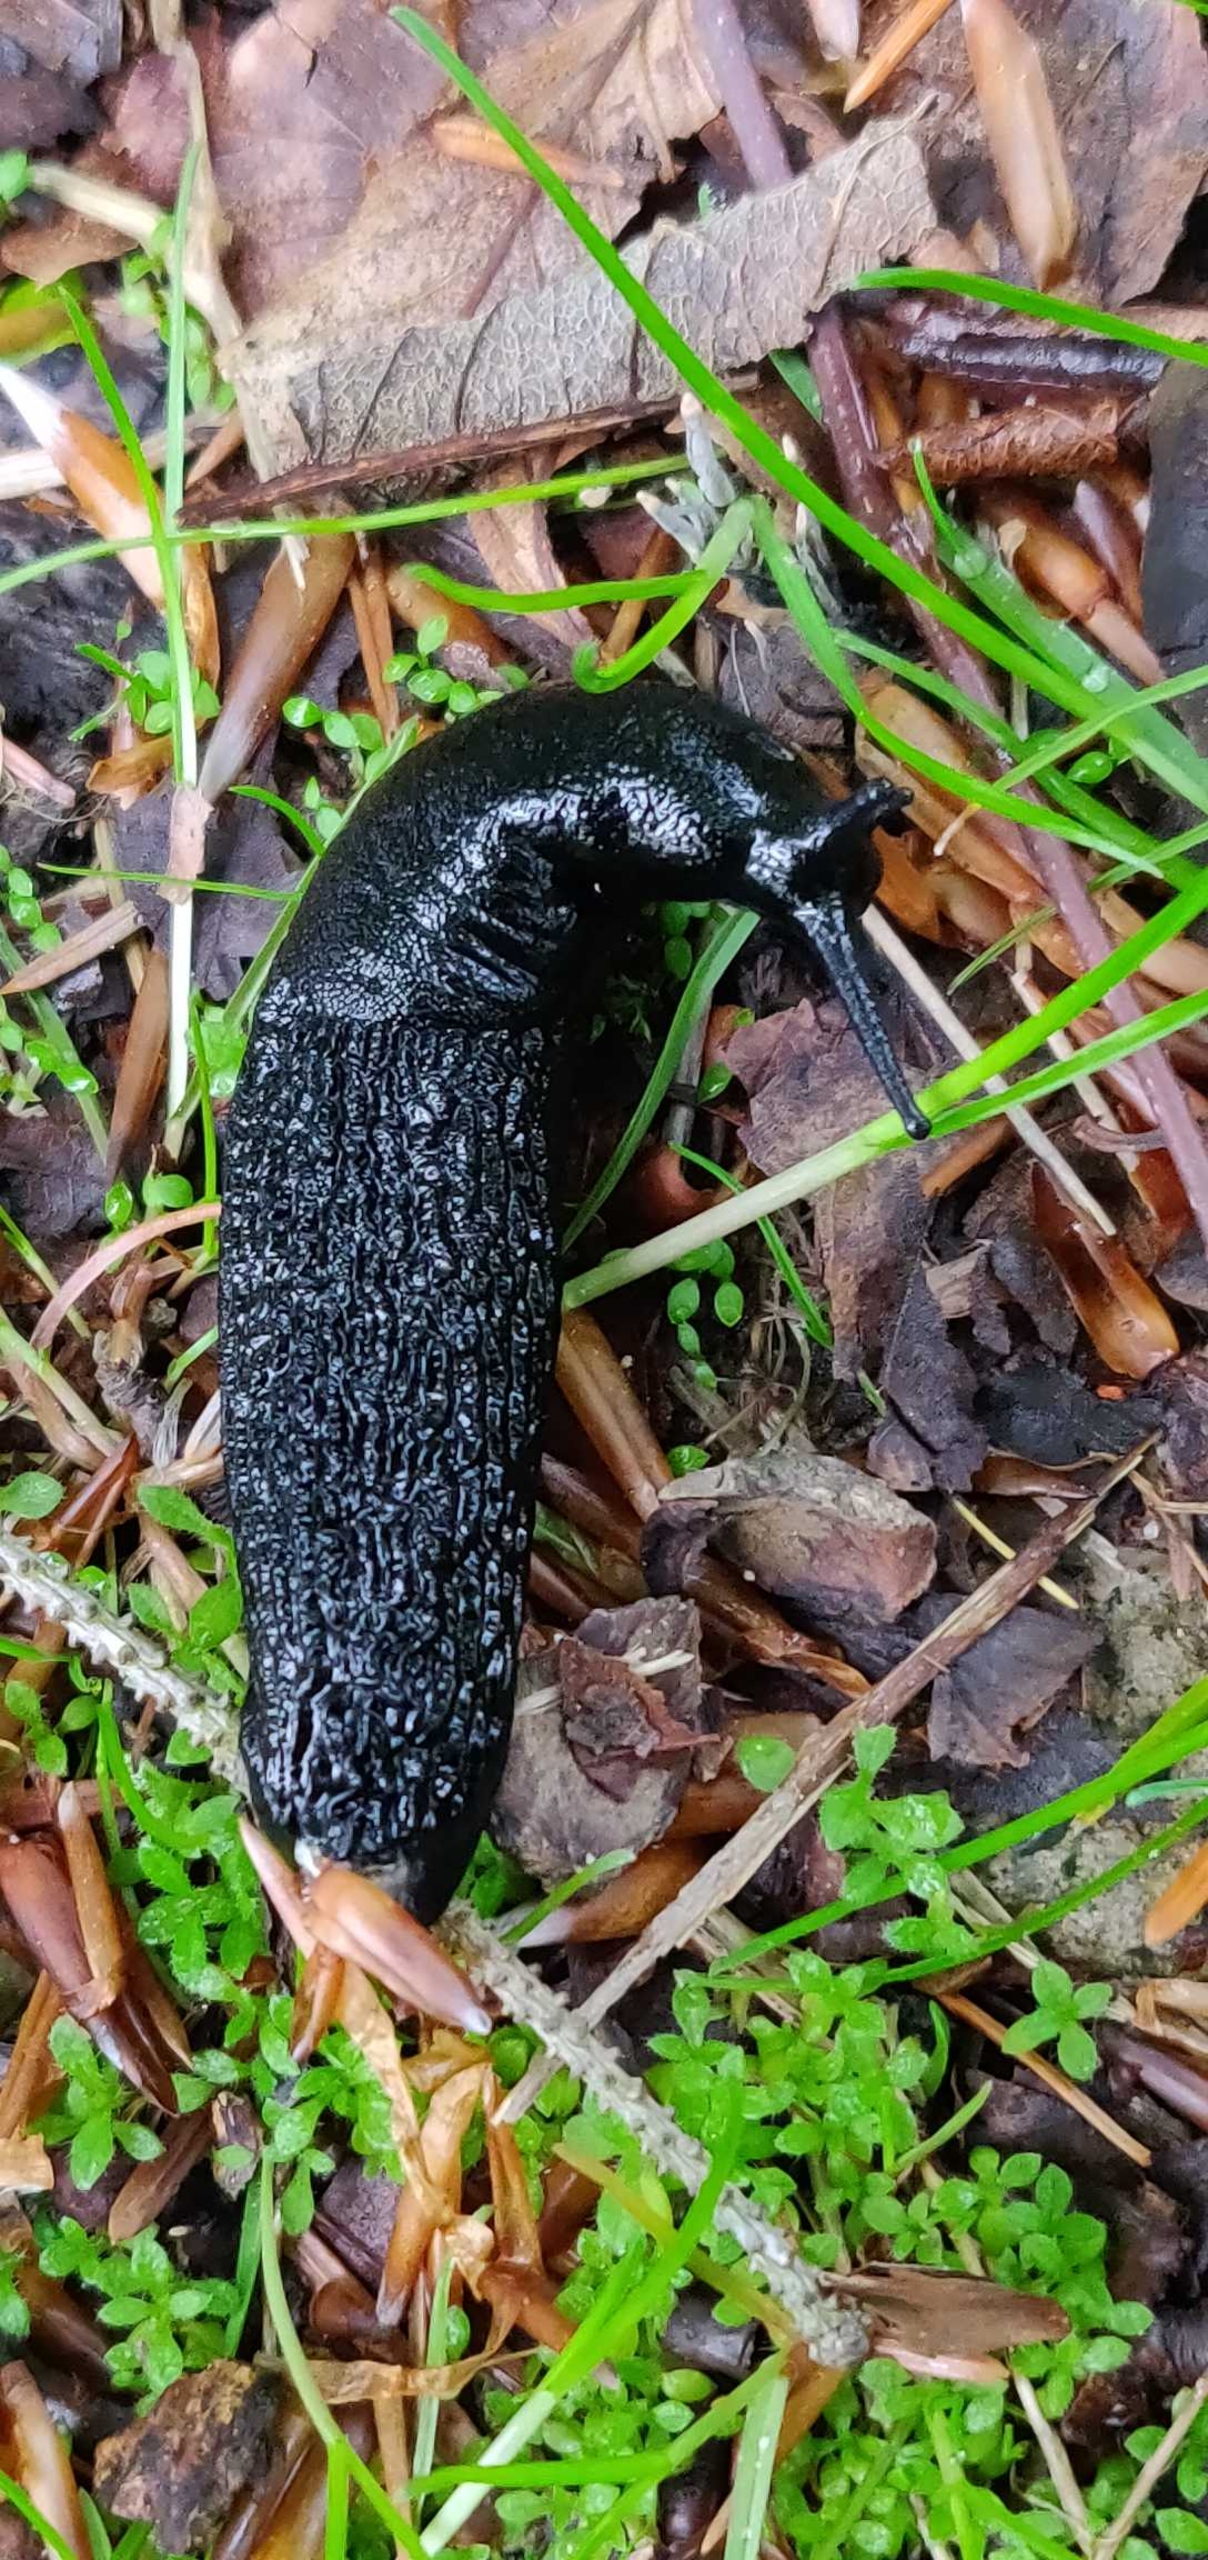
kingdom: Animalia
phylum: Mollusca
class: Gastropoda
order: Stylommatophora
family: Arionidae
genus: Arion
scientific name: Arion ater
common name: Sort skovsnegl
